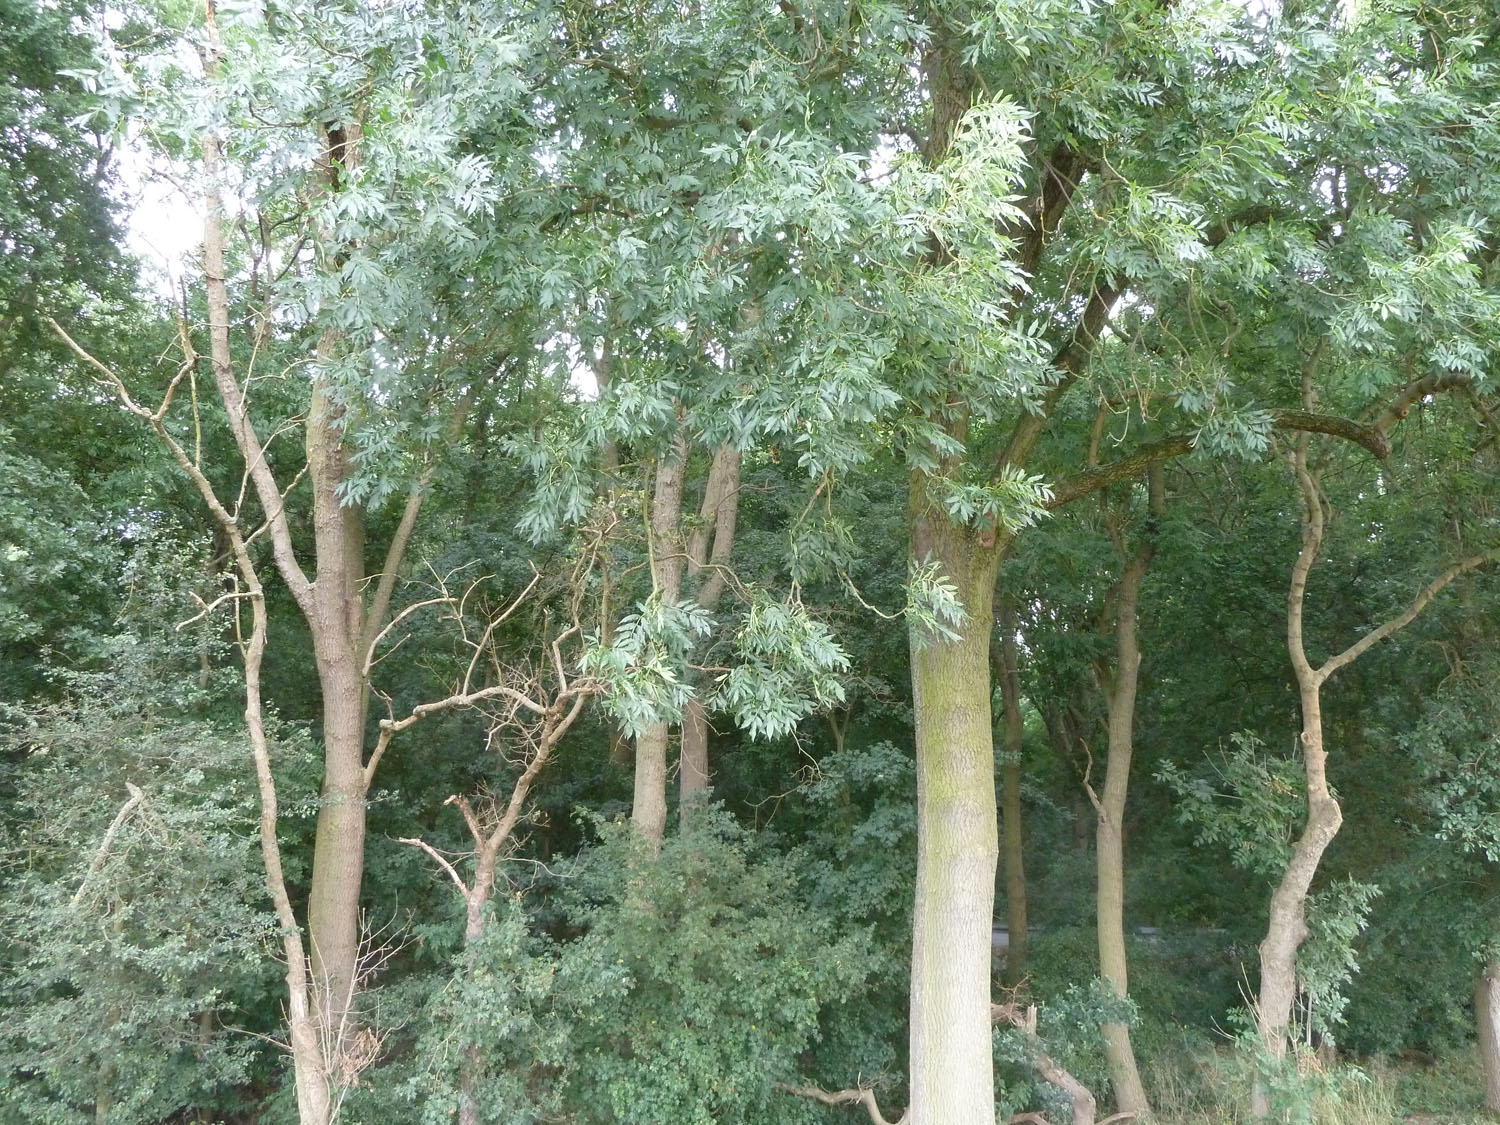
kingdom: Plantae
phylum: Tracheophyta
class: Magnoliopsida
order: Lamiales
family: Oleaceae
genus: Fraxinus
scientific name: Fraxinus excelsior
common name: European ash
